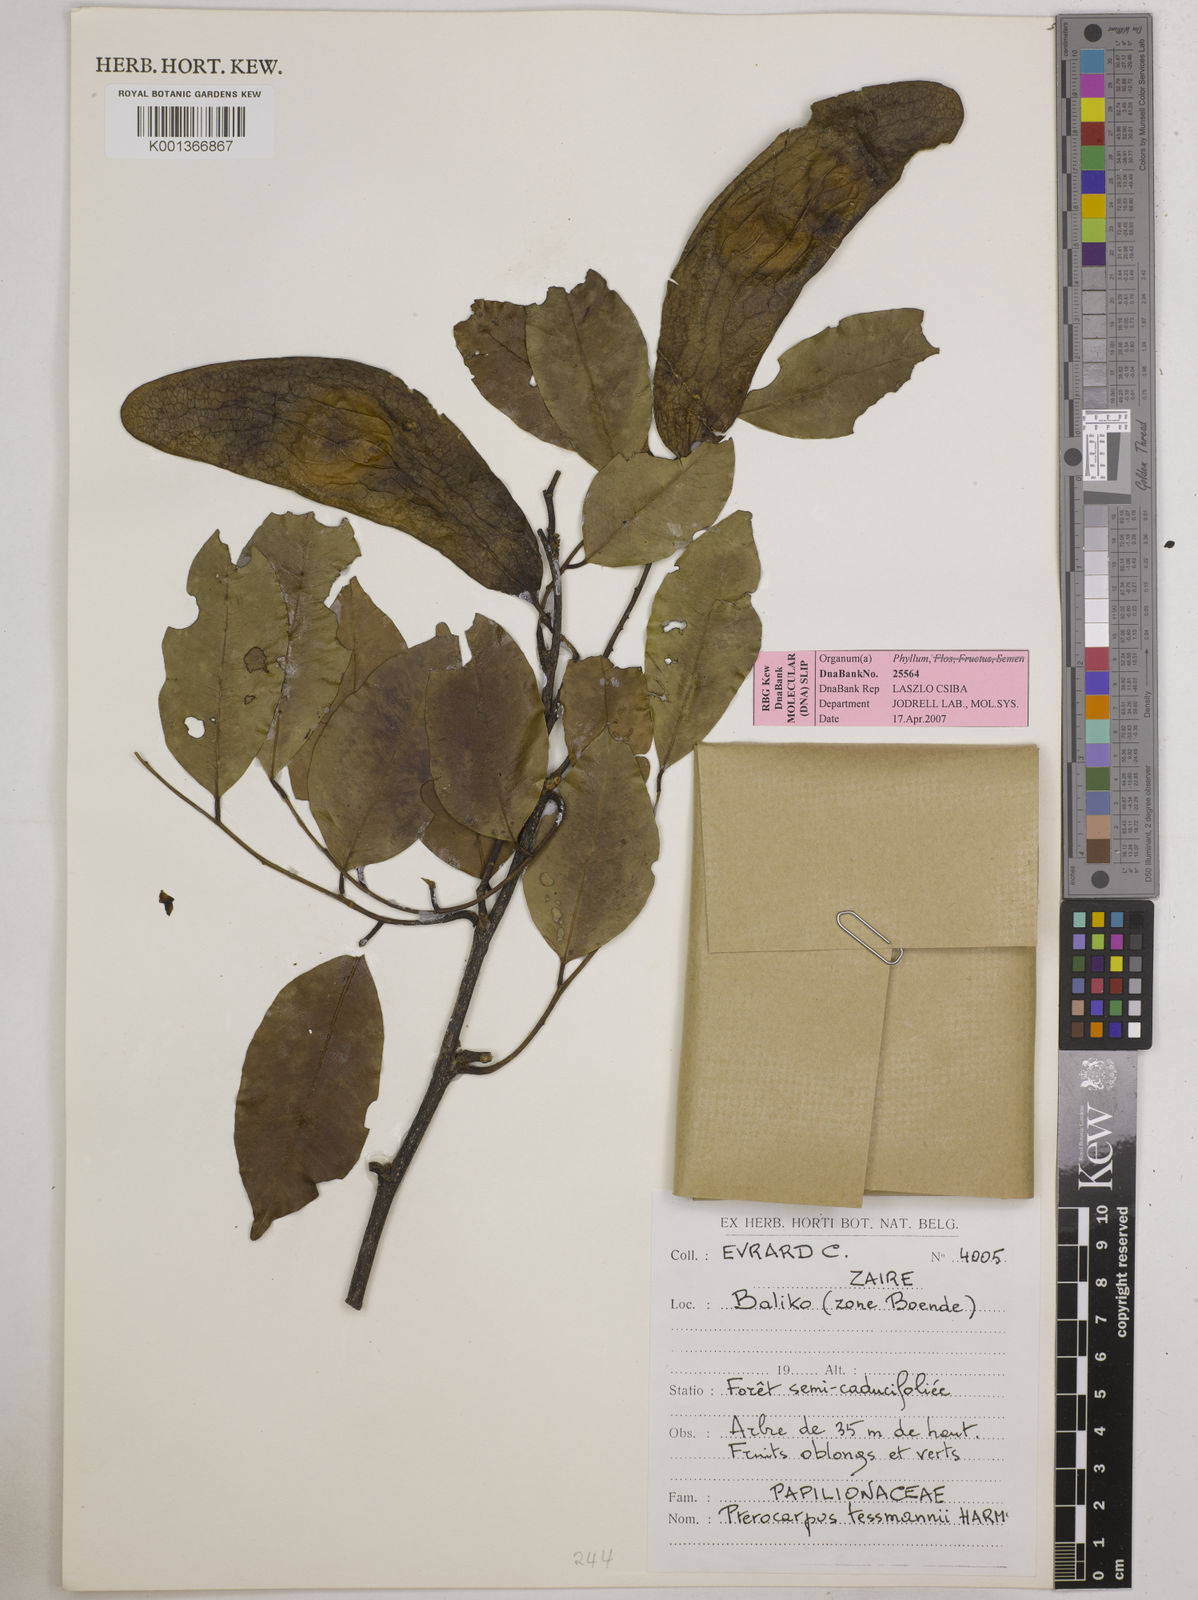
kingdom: Plantae
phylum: Tracheophyta
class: Magnoliopsida
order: Fabales
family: Fabaceae
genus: Pterocarpus
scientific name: Pterocarpus tessmannii
